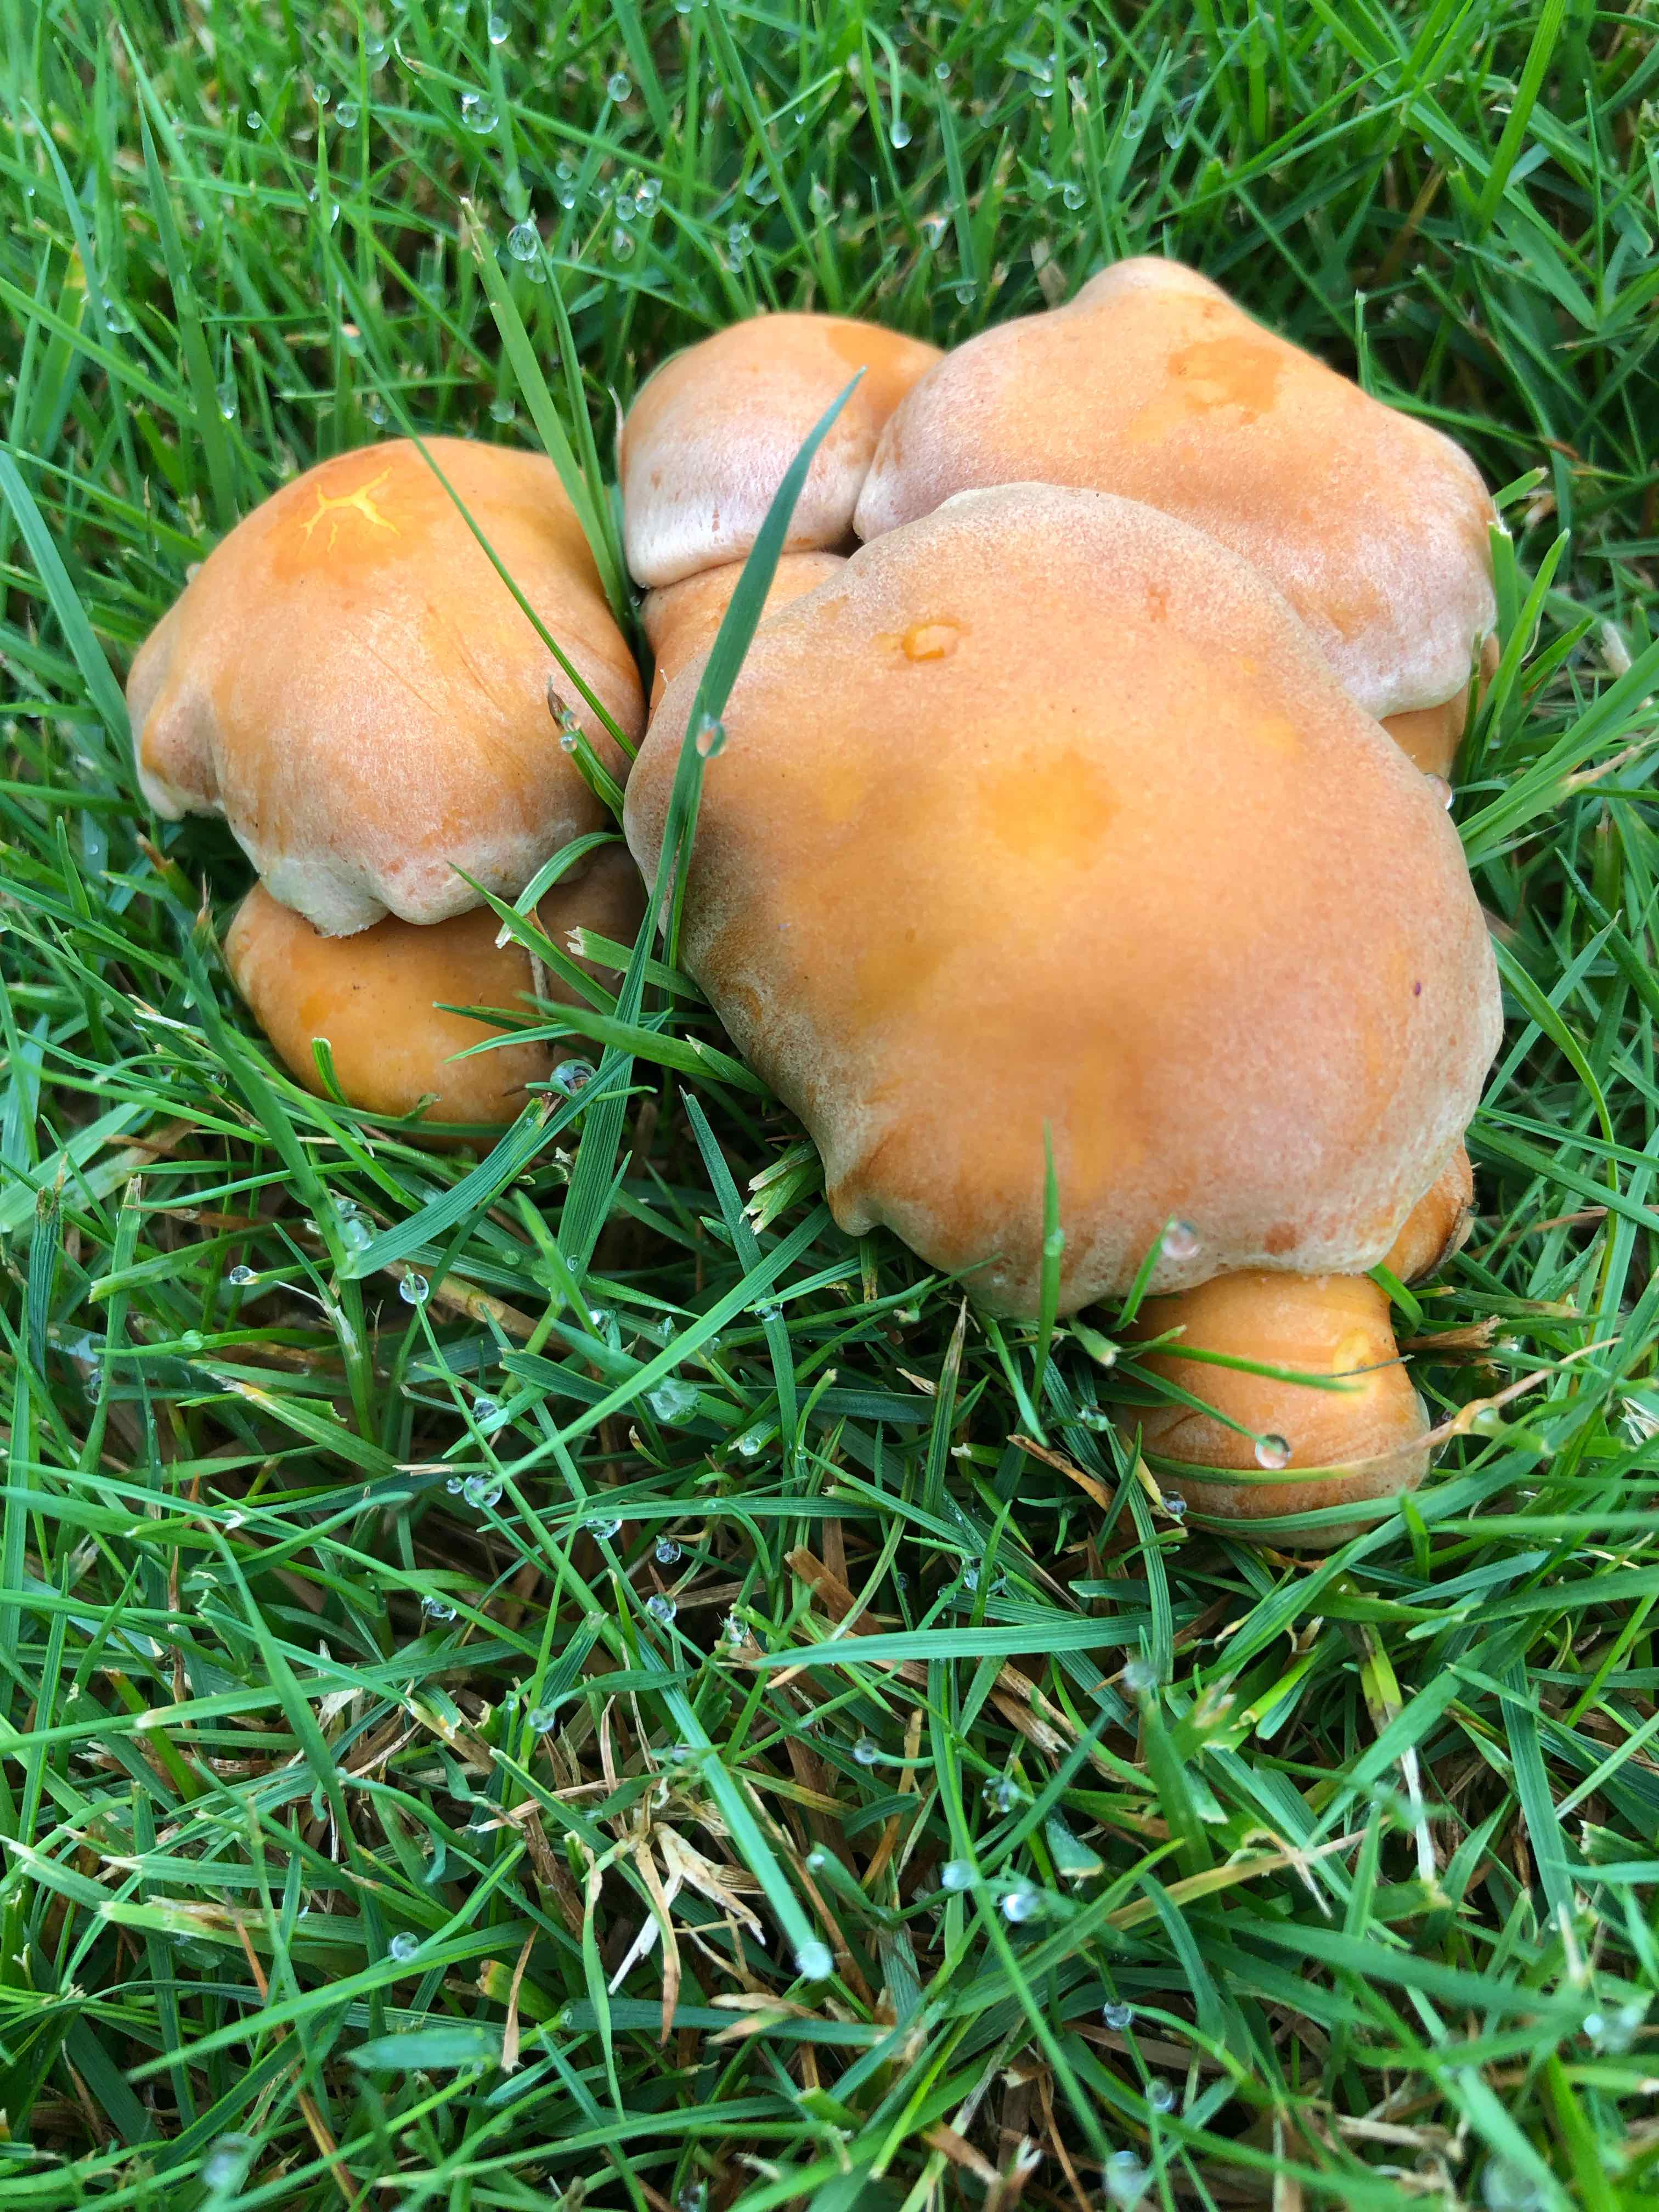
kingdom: Fungi
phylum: Basidiomycota
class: Agaricomycetes
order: Agaricales
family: Strophariaceae
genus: Hypholoma
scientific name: Hypholoma fasciculare
